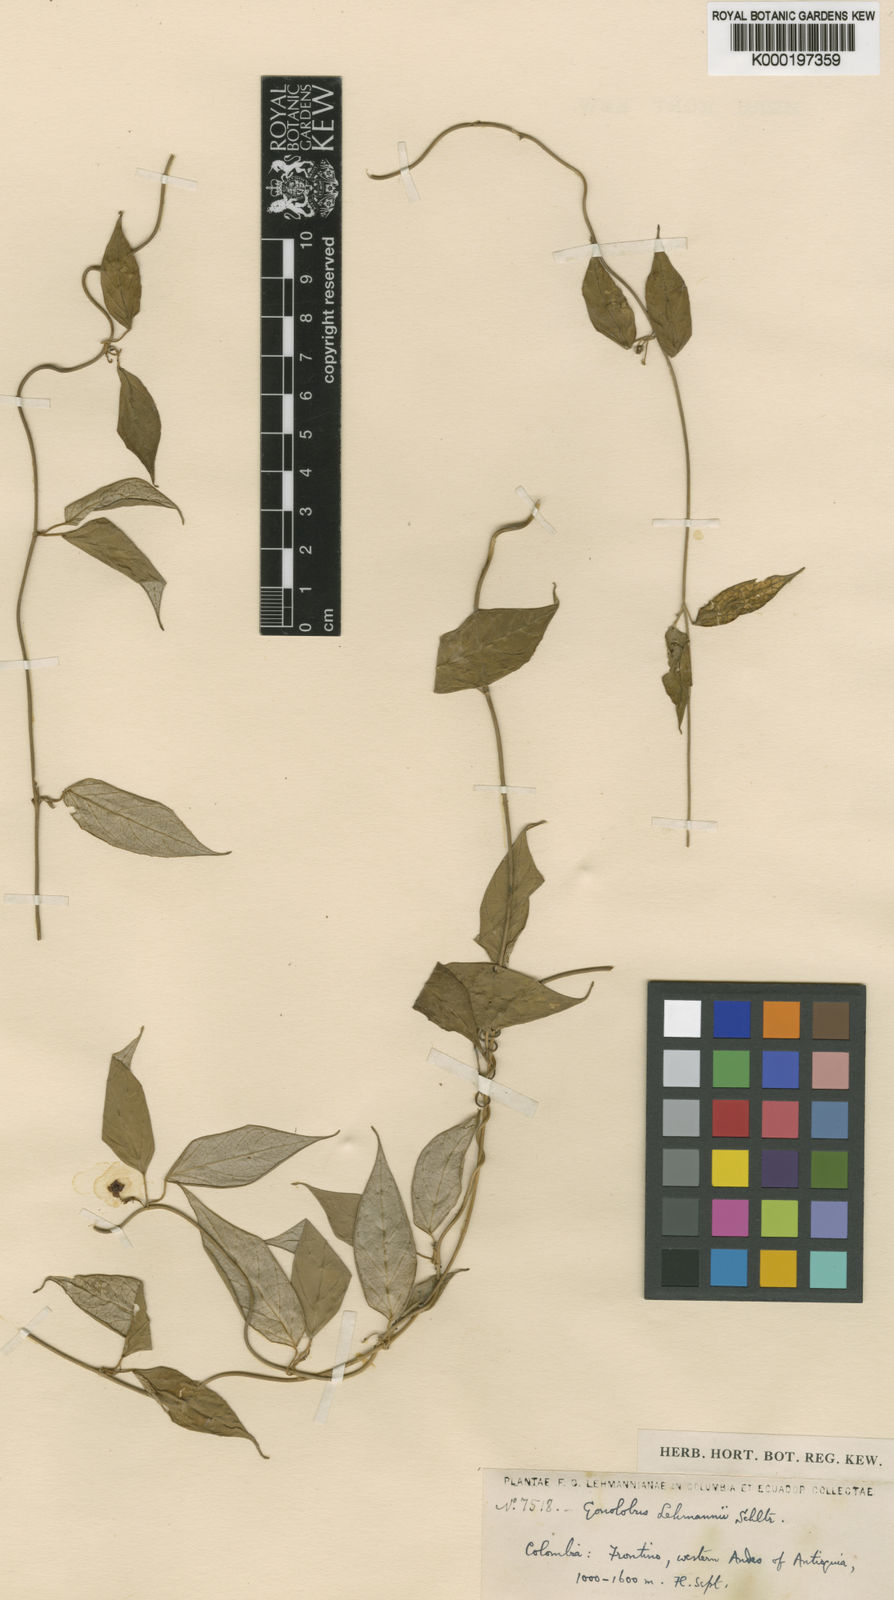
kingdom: Plantae
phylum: Tracheophyta
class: Magnoliopsida
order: Gentianales
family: Apocynaceae
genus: Matelea
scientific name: Matelea lehmannii
